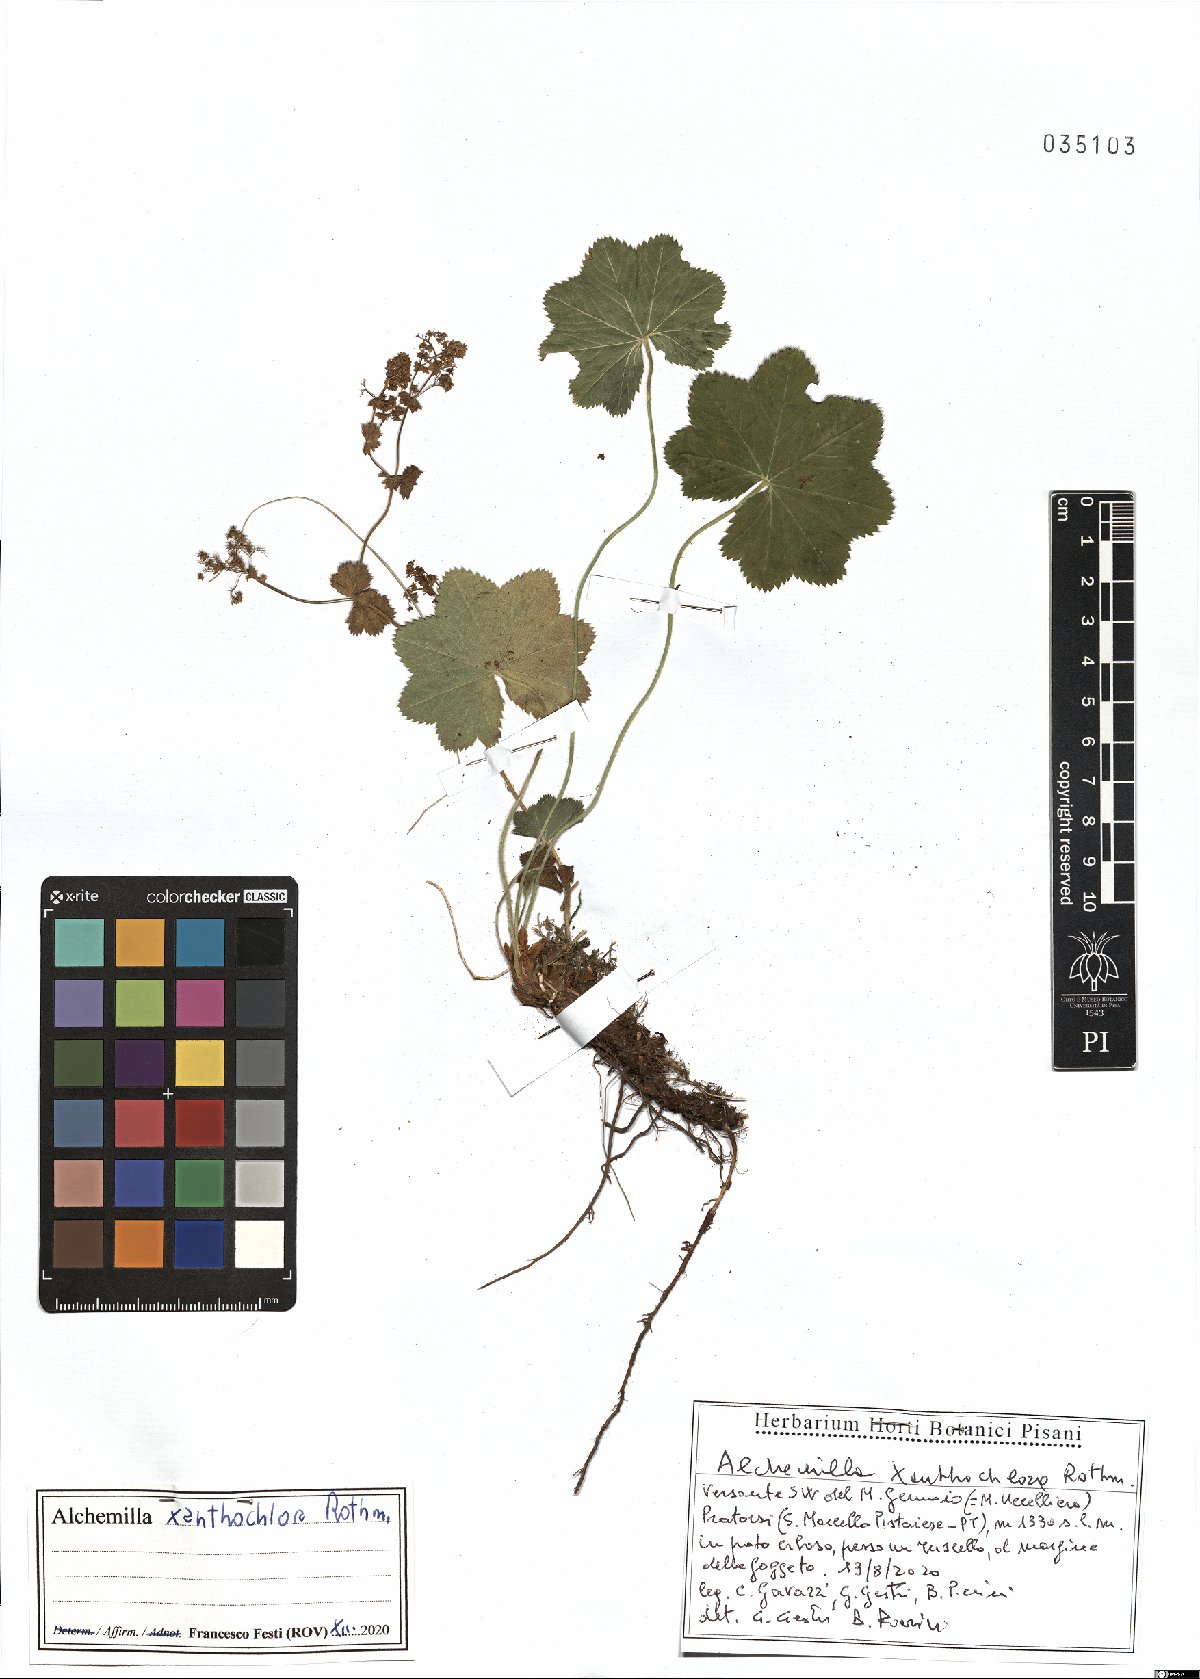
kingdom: Plantae
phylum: Tracheophyta
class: Magnoliopsida
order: Rosales
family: Rosaceae
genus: Alchemilla
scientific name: Alchemilla xanthochlora
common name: Intermediate lady's-mantle
